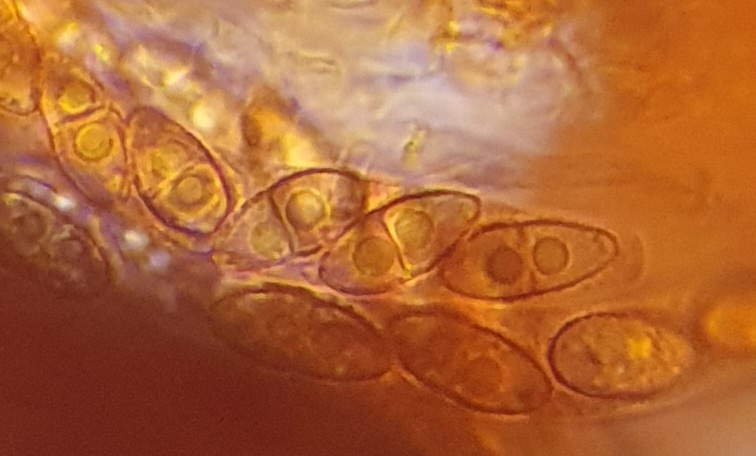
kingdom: Fungi
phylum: Ascomycota
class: Sordariomycetes
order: Hypocreales
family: Nectriaceae
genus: Corinectria
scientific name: Corinectria fuckeliana
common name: grankræft-cinnobersvamp
